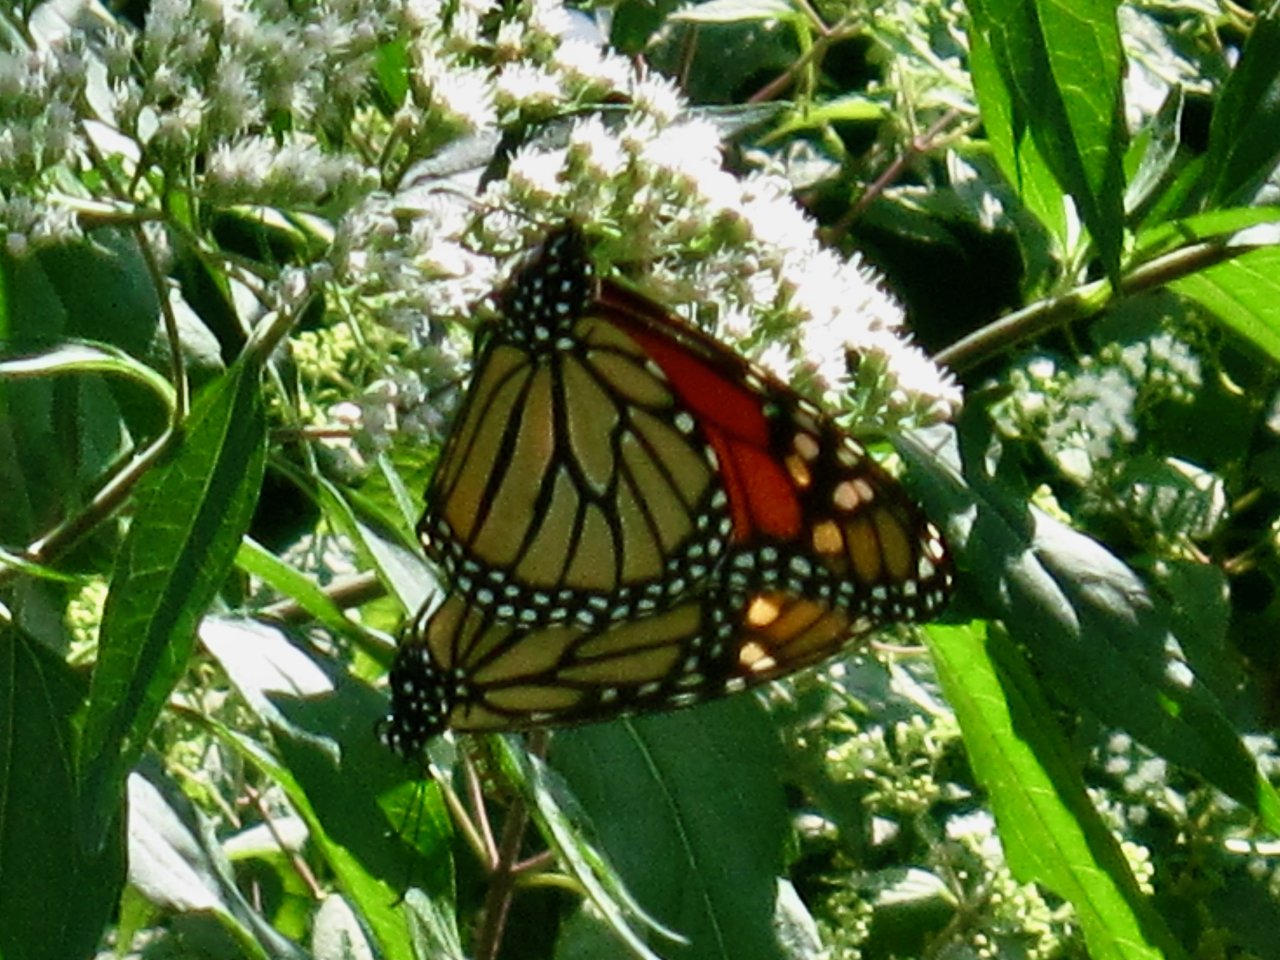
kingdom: Animalia
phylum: Arthropoda
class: Insecta
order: Lepidoptera
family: Nymphalidae
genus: Danaus
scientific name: Danaus plexippus
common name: Monarch
